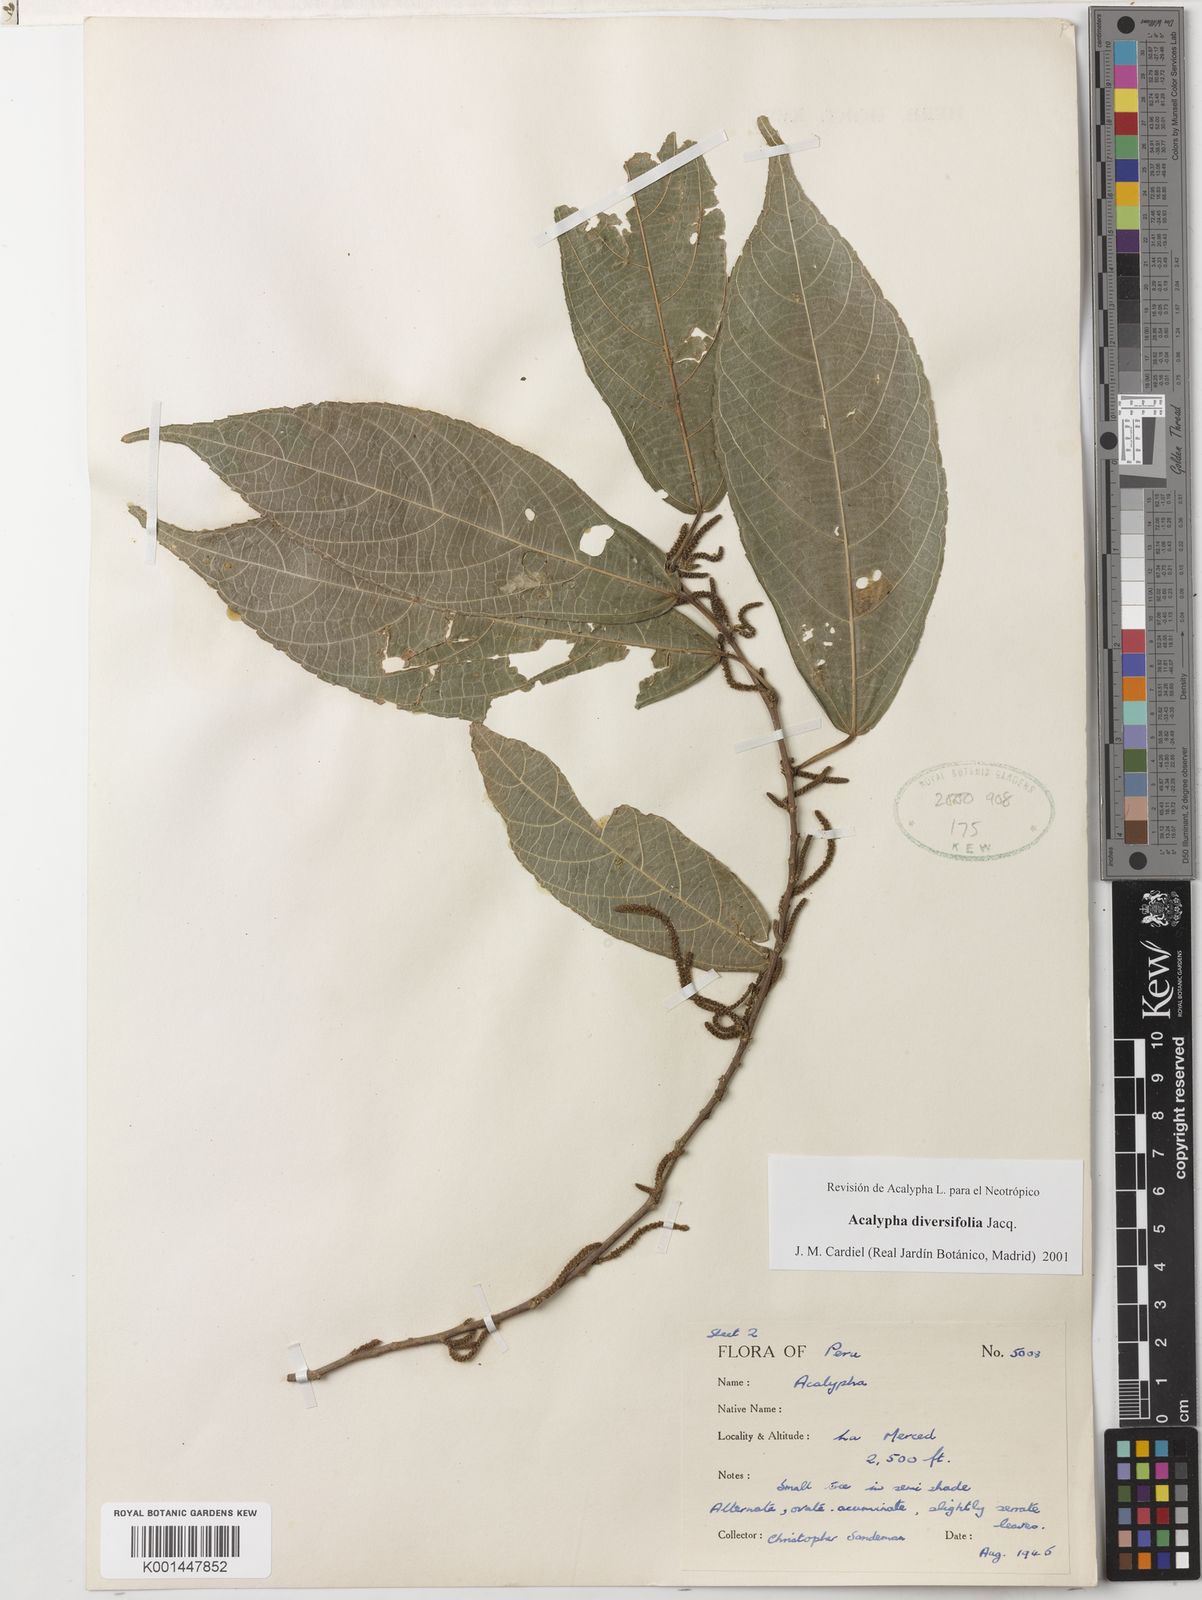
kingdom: Plantae
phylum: Tracheophyta
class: Magnoliopsida
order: Malpighiales
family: Euphorbiaceae
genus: Acalypha
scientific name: Acalypha diversifolia
